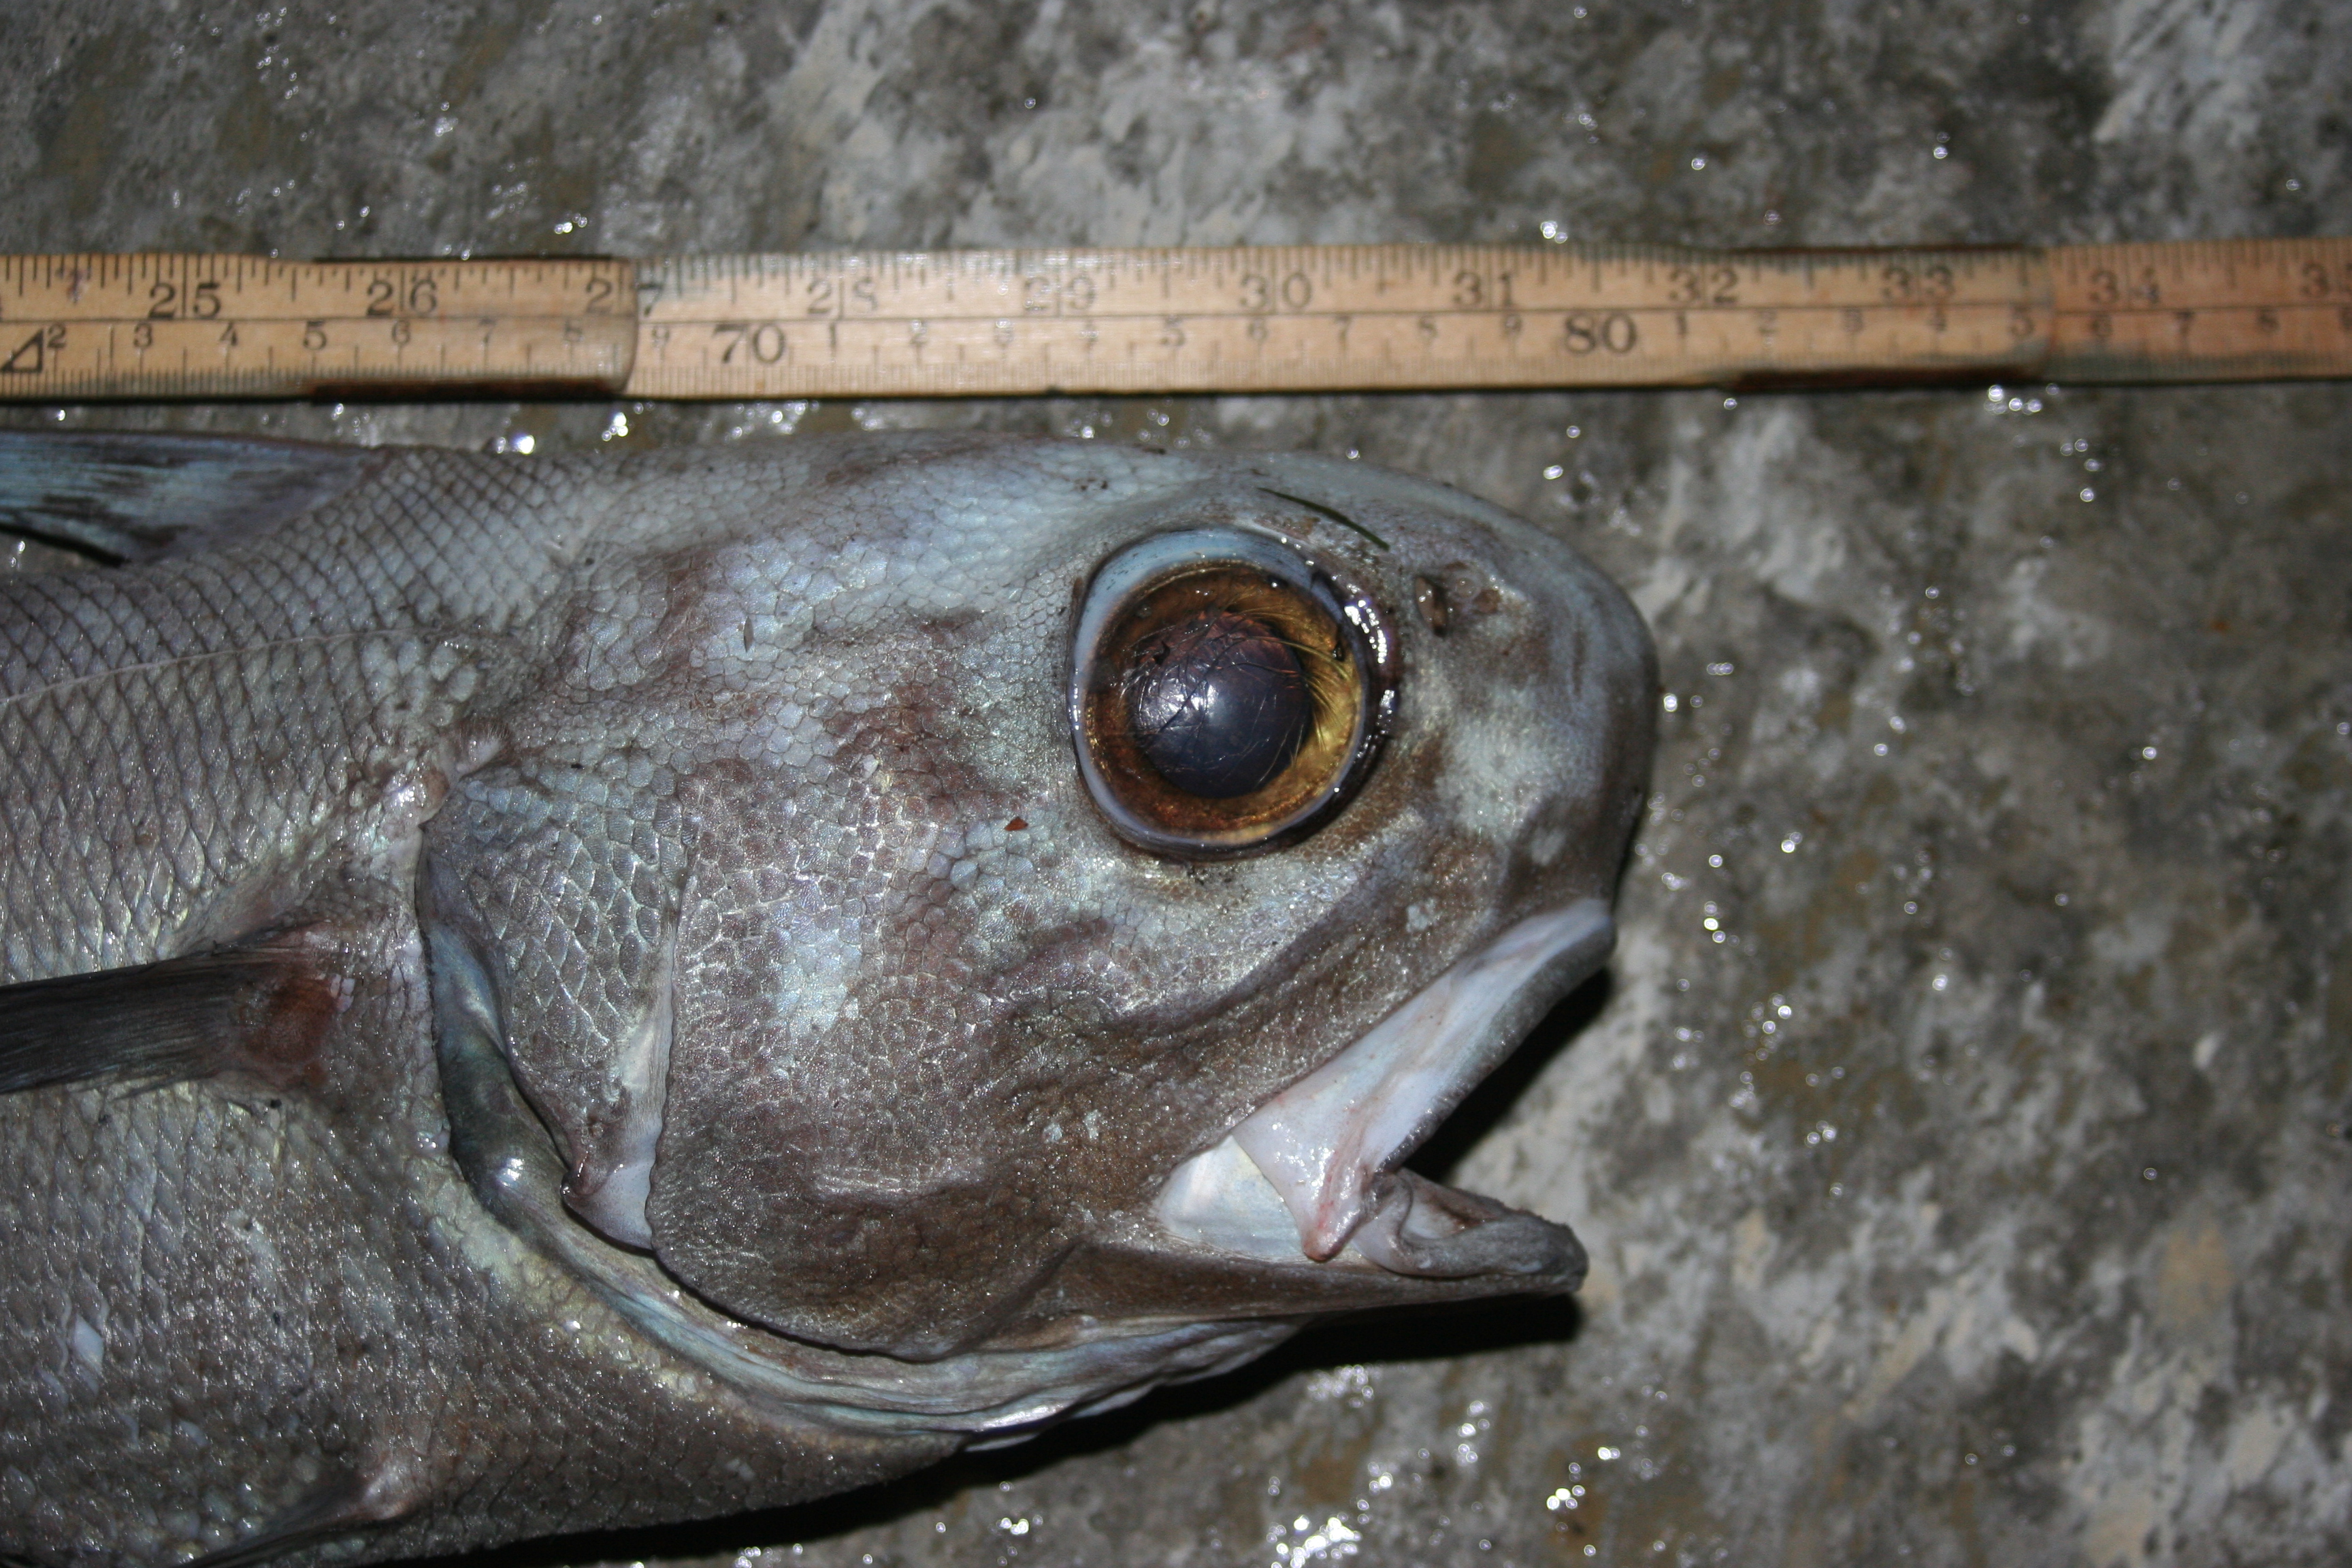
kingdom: Animalia
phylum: Chordata
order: Gadiformes
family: Macrouridae
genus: Coryphaenoides
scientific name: Coryphaenoides rupestris
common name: Rock grenadier
